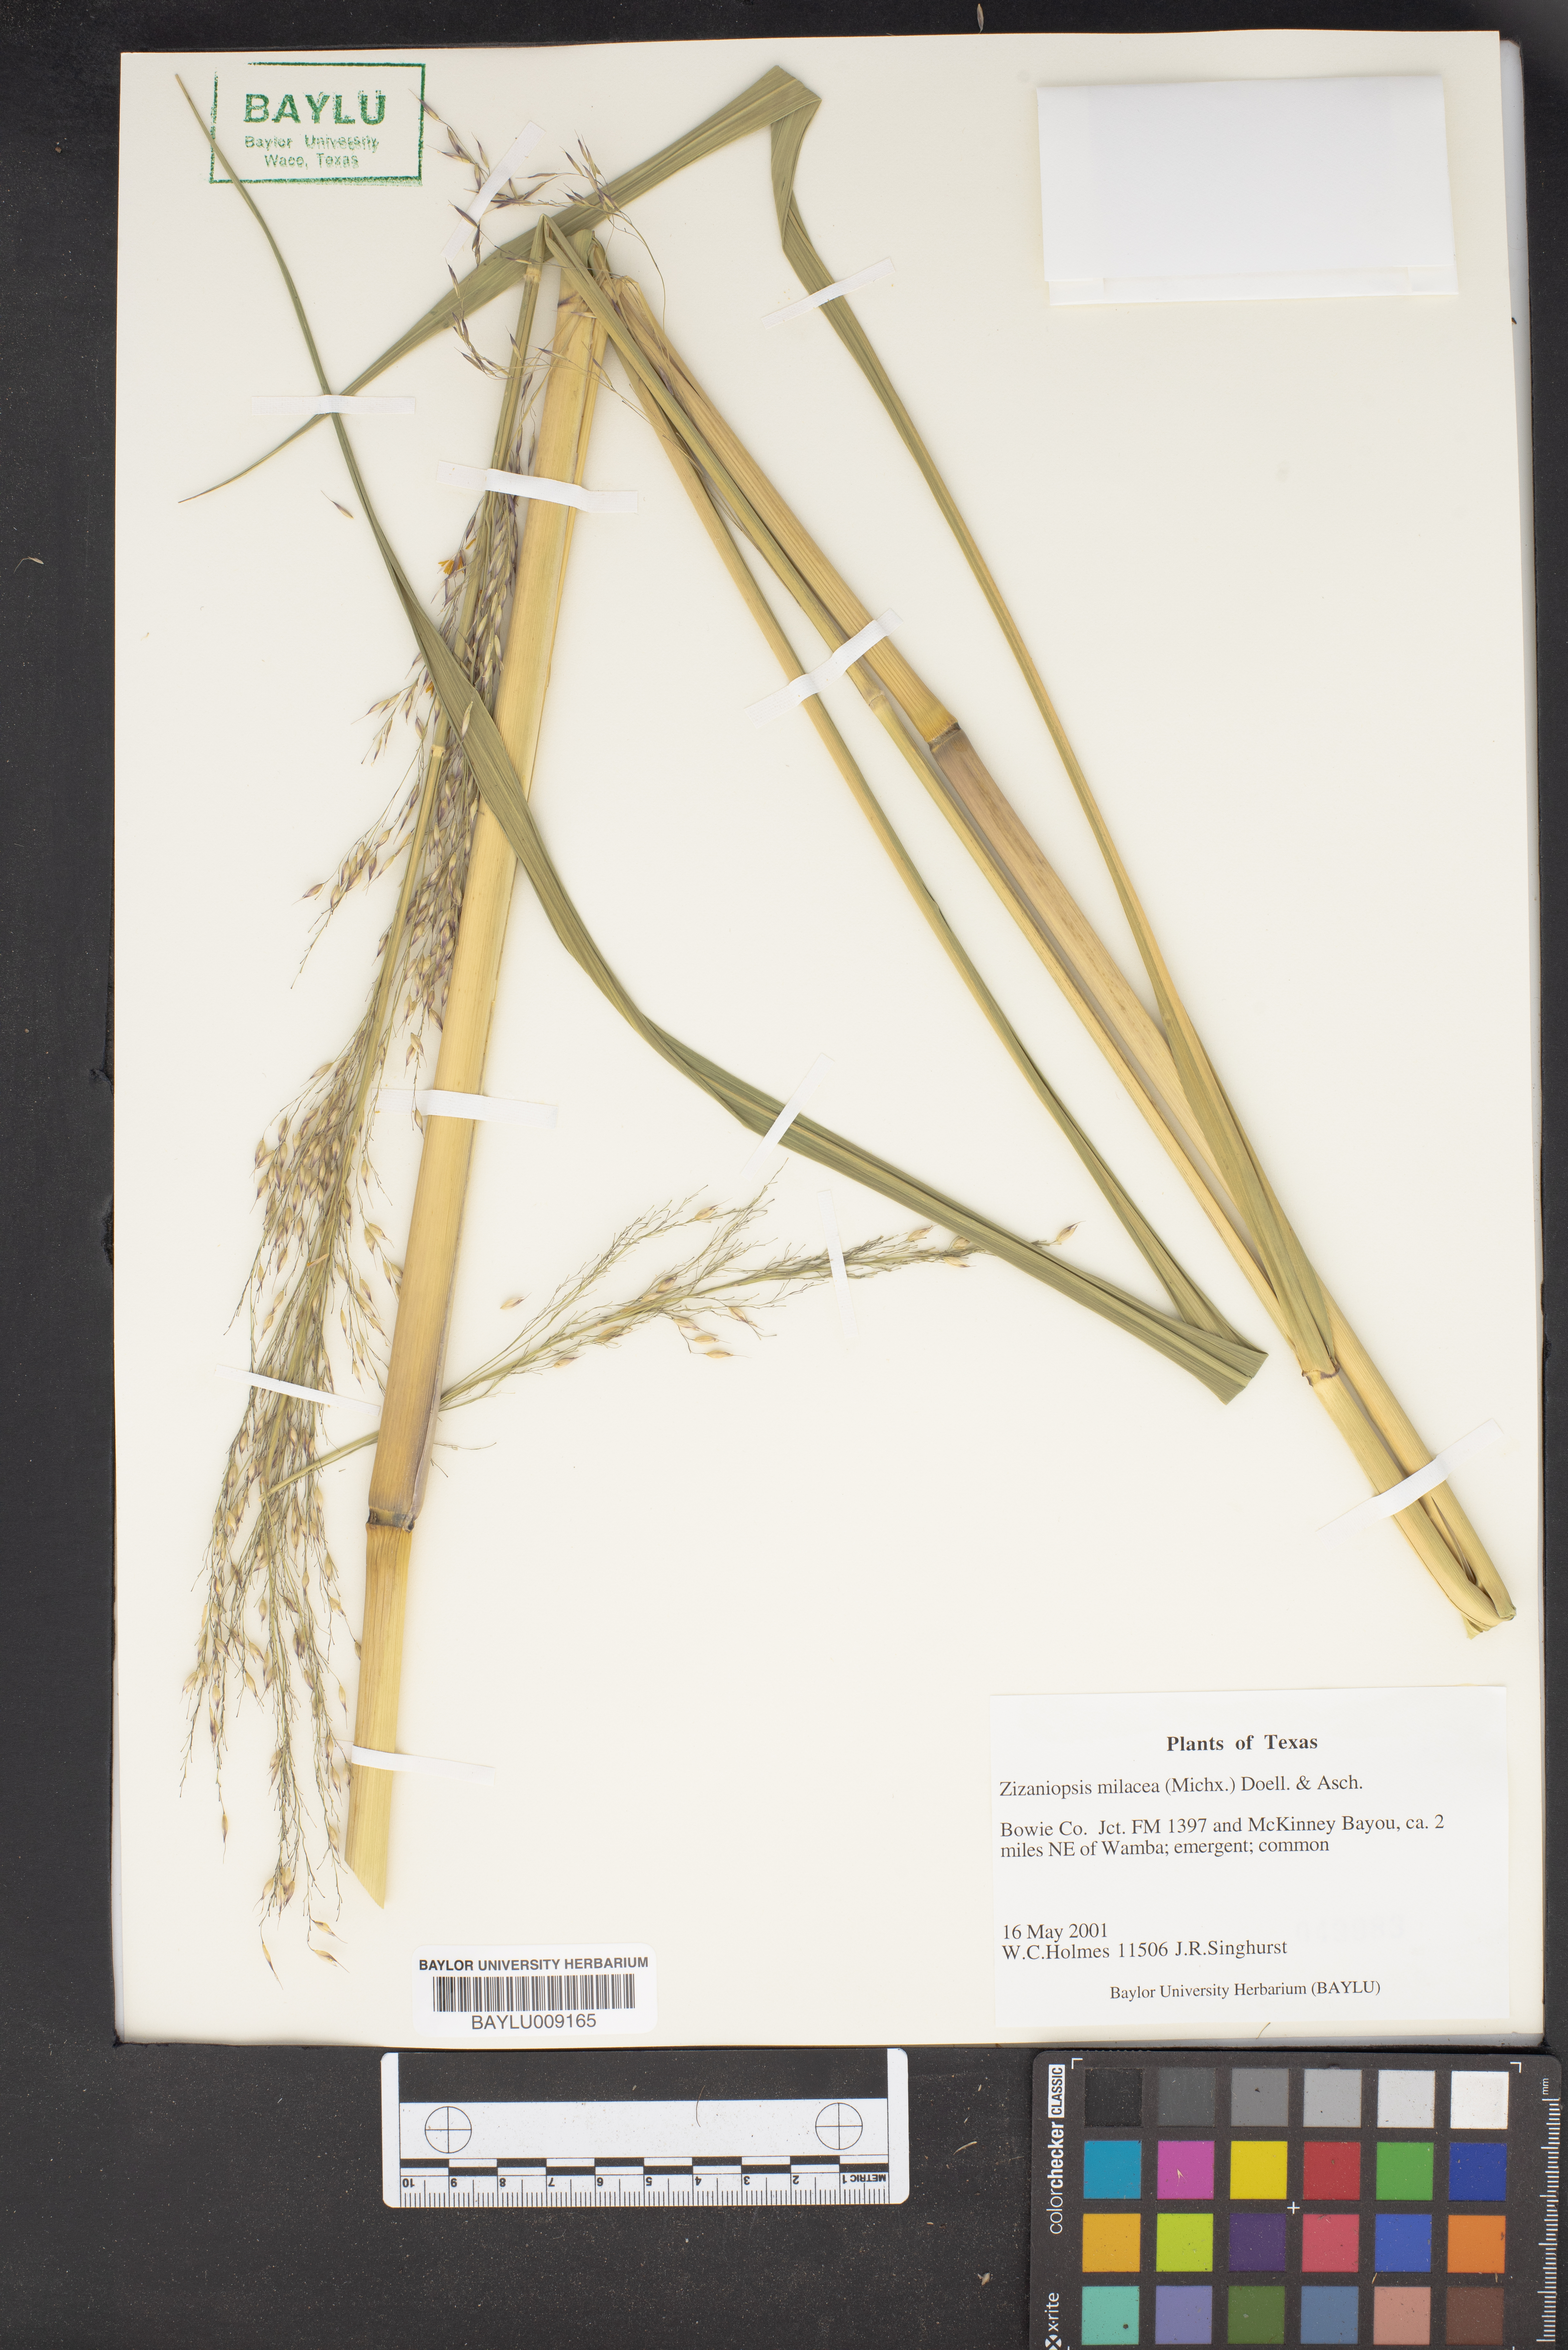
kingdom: Plantae
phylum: Tracheophyta
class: Liliopsida
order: Poales
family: Poaceae
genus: Zizaniopsis
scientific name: Zizaniopsis miliacea
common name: Giant-cutgrass
